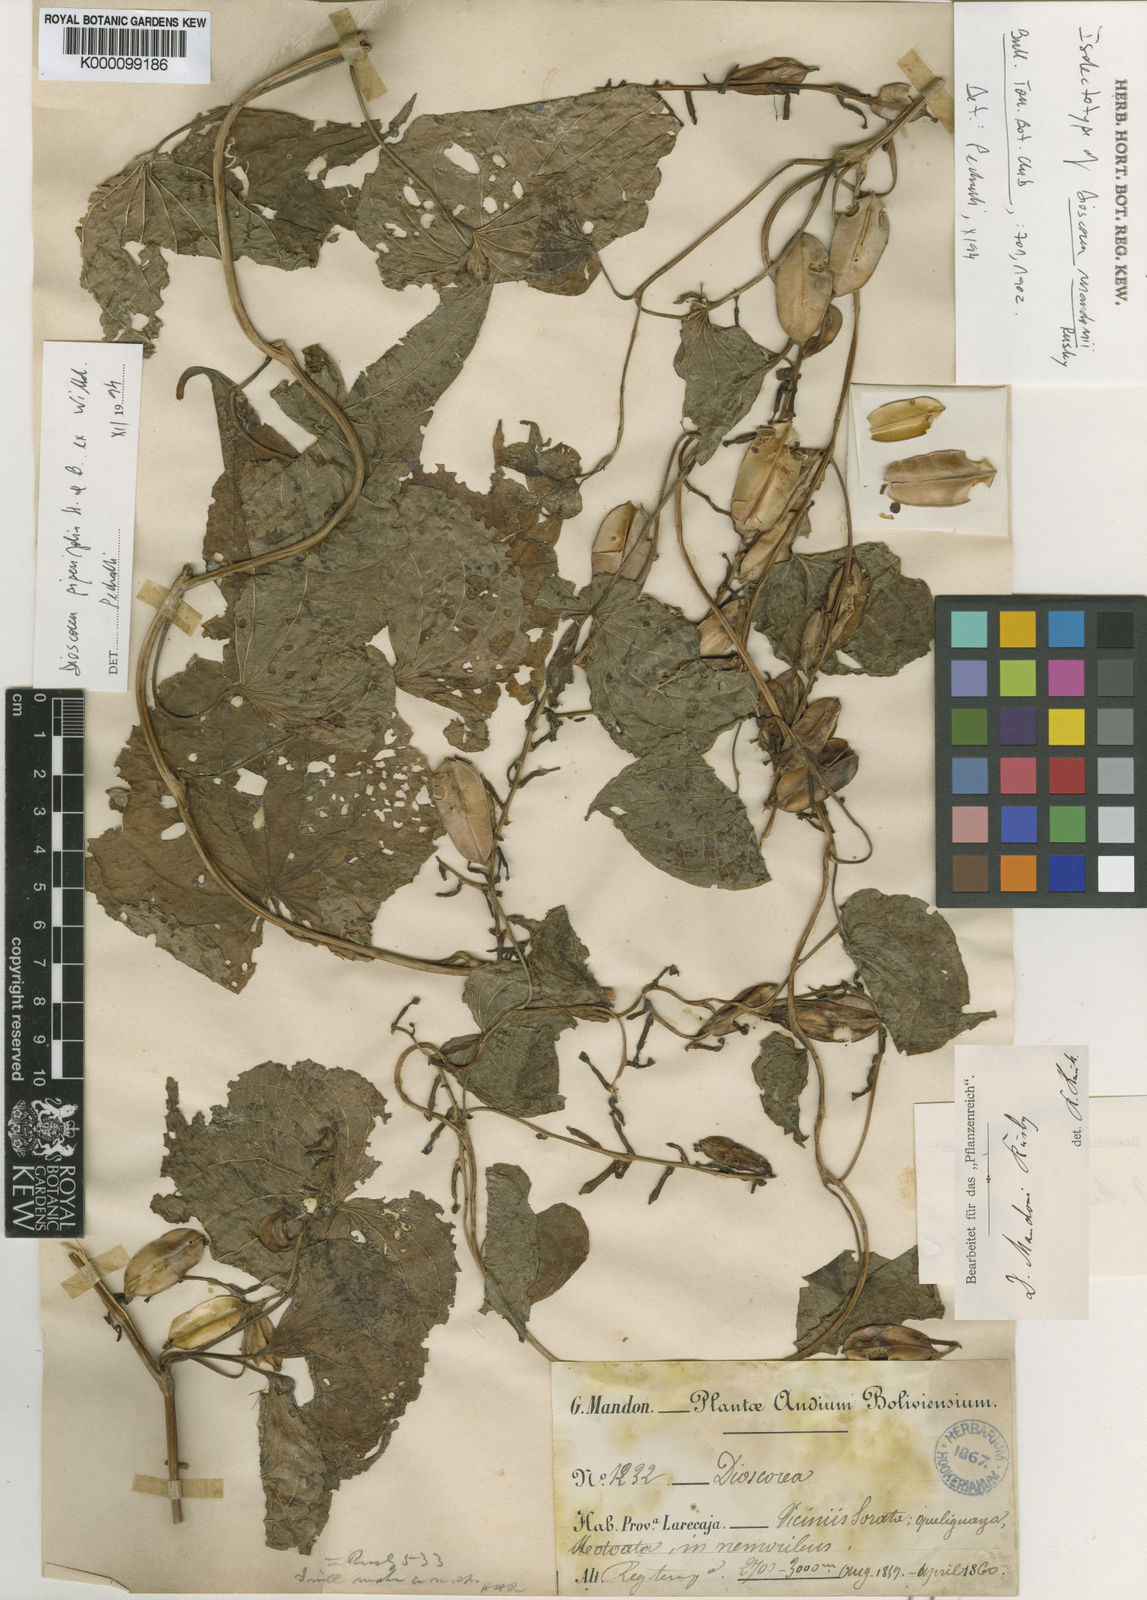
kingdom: Plantae
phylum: Tracheophyta
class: Liliopsida
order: Dioscoreales
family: Dioscoreaceae
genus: Dioscorea
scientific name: Dioscorea piperifolia
